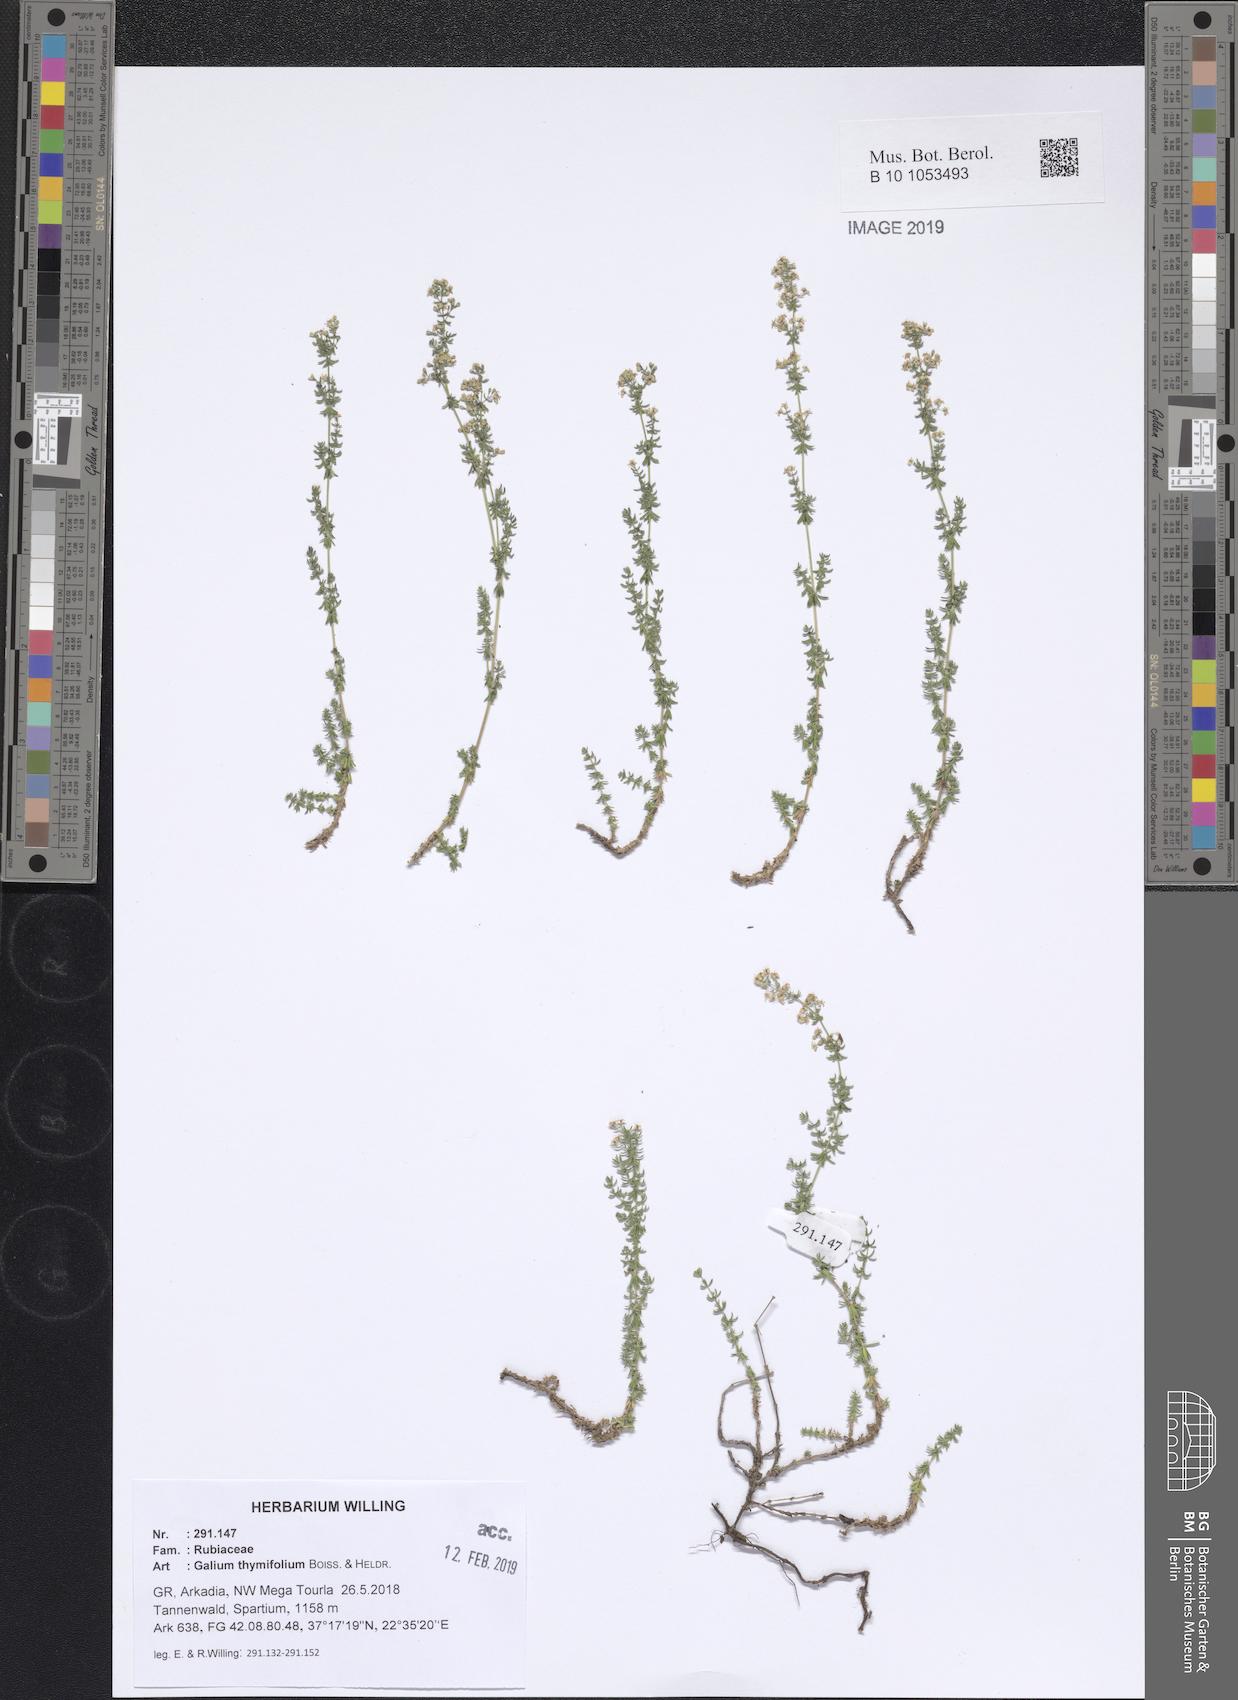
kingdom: Plantae
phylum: Tracheophyta
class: Magnoliopsida
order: Gentianales
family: Rubiaceae
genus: Galium
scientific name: Galium thymifolium
